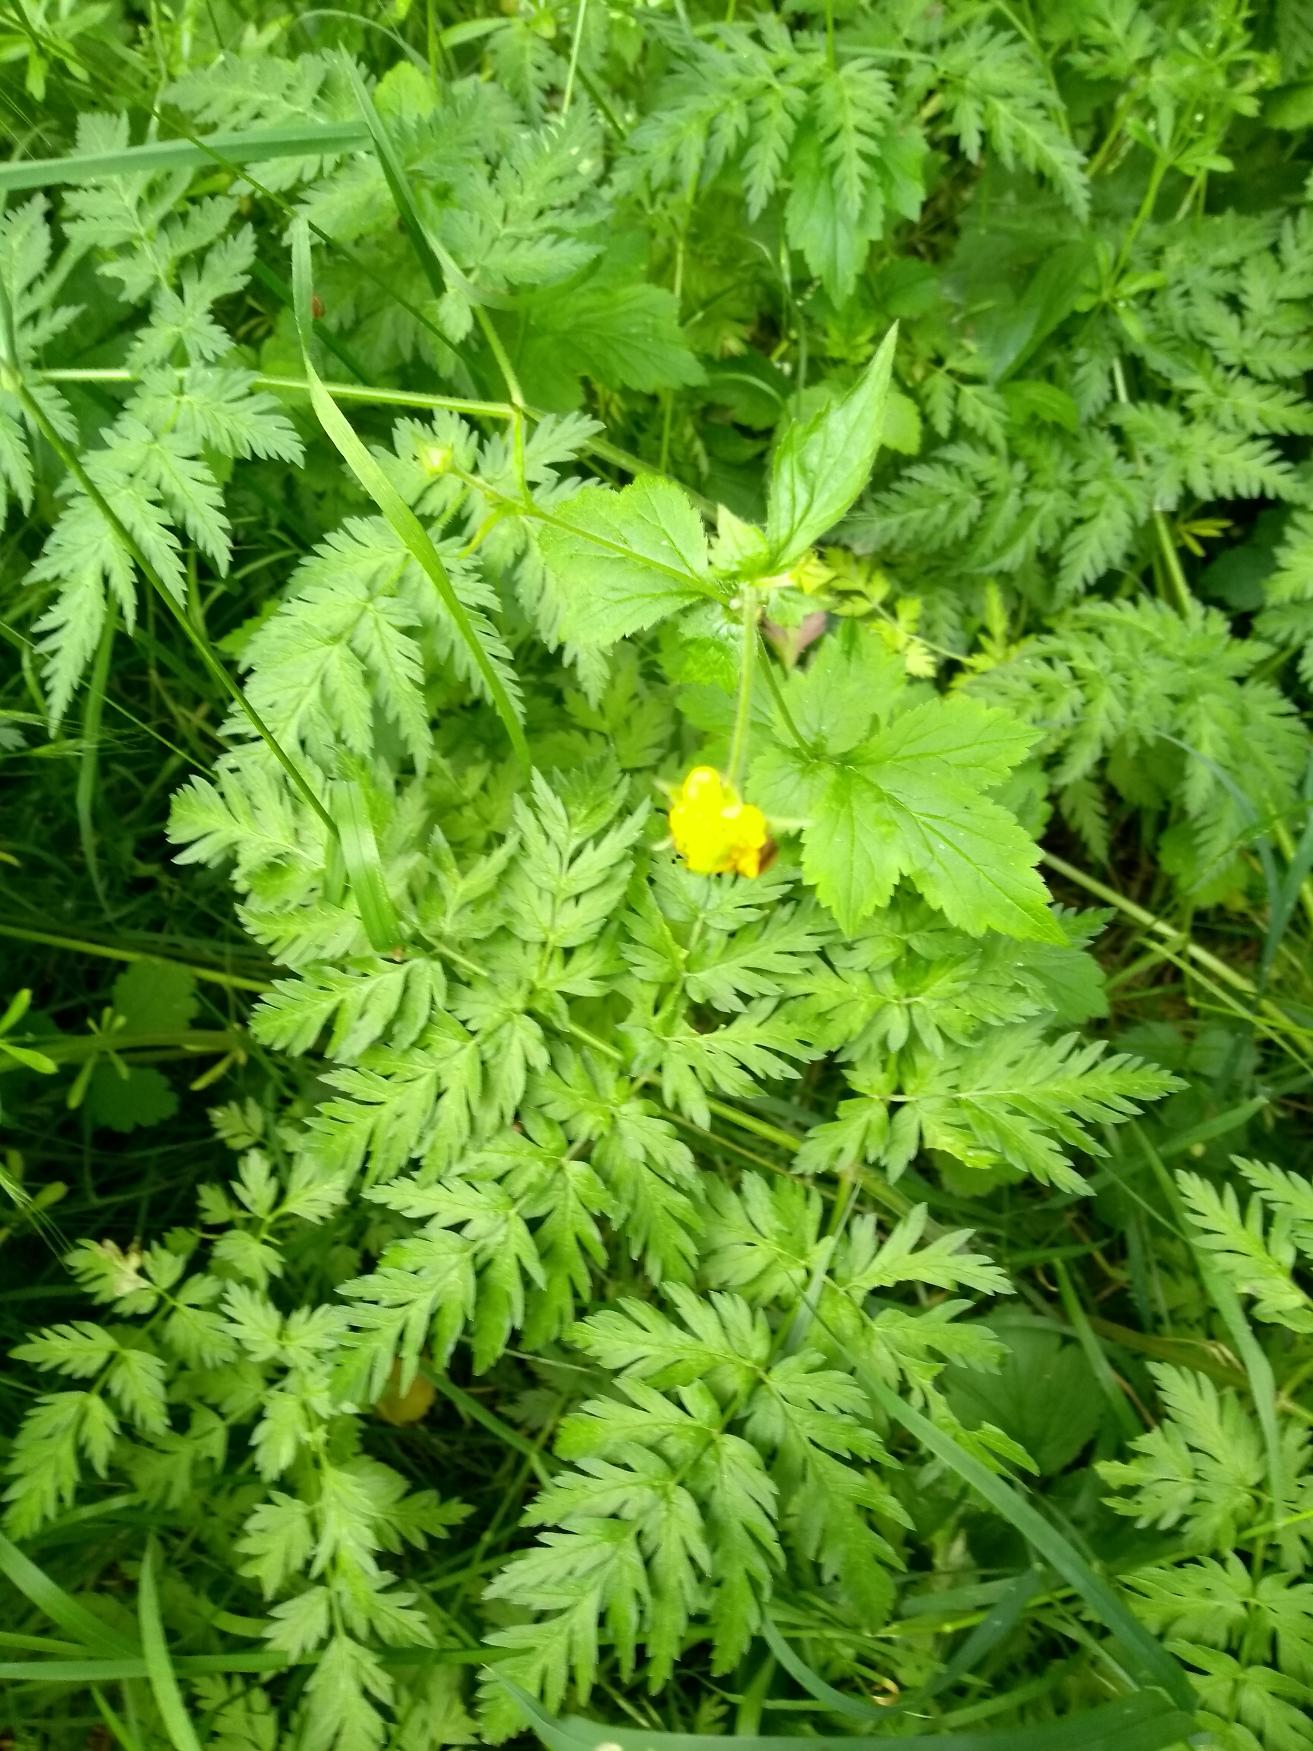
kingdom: Plantae
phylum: Tracheophyta
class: Magnoliopsida
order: Rosales
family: Rosaceae
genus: Geum
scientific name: Geum urbanum
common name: Feber-nellikerod
